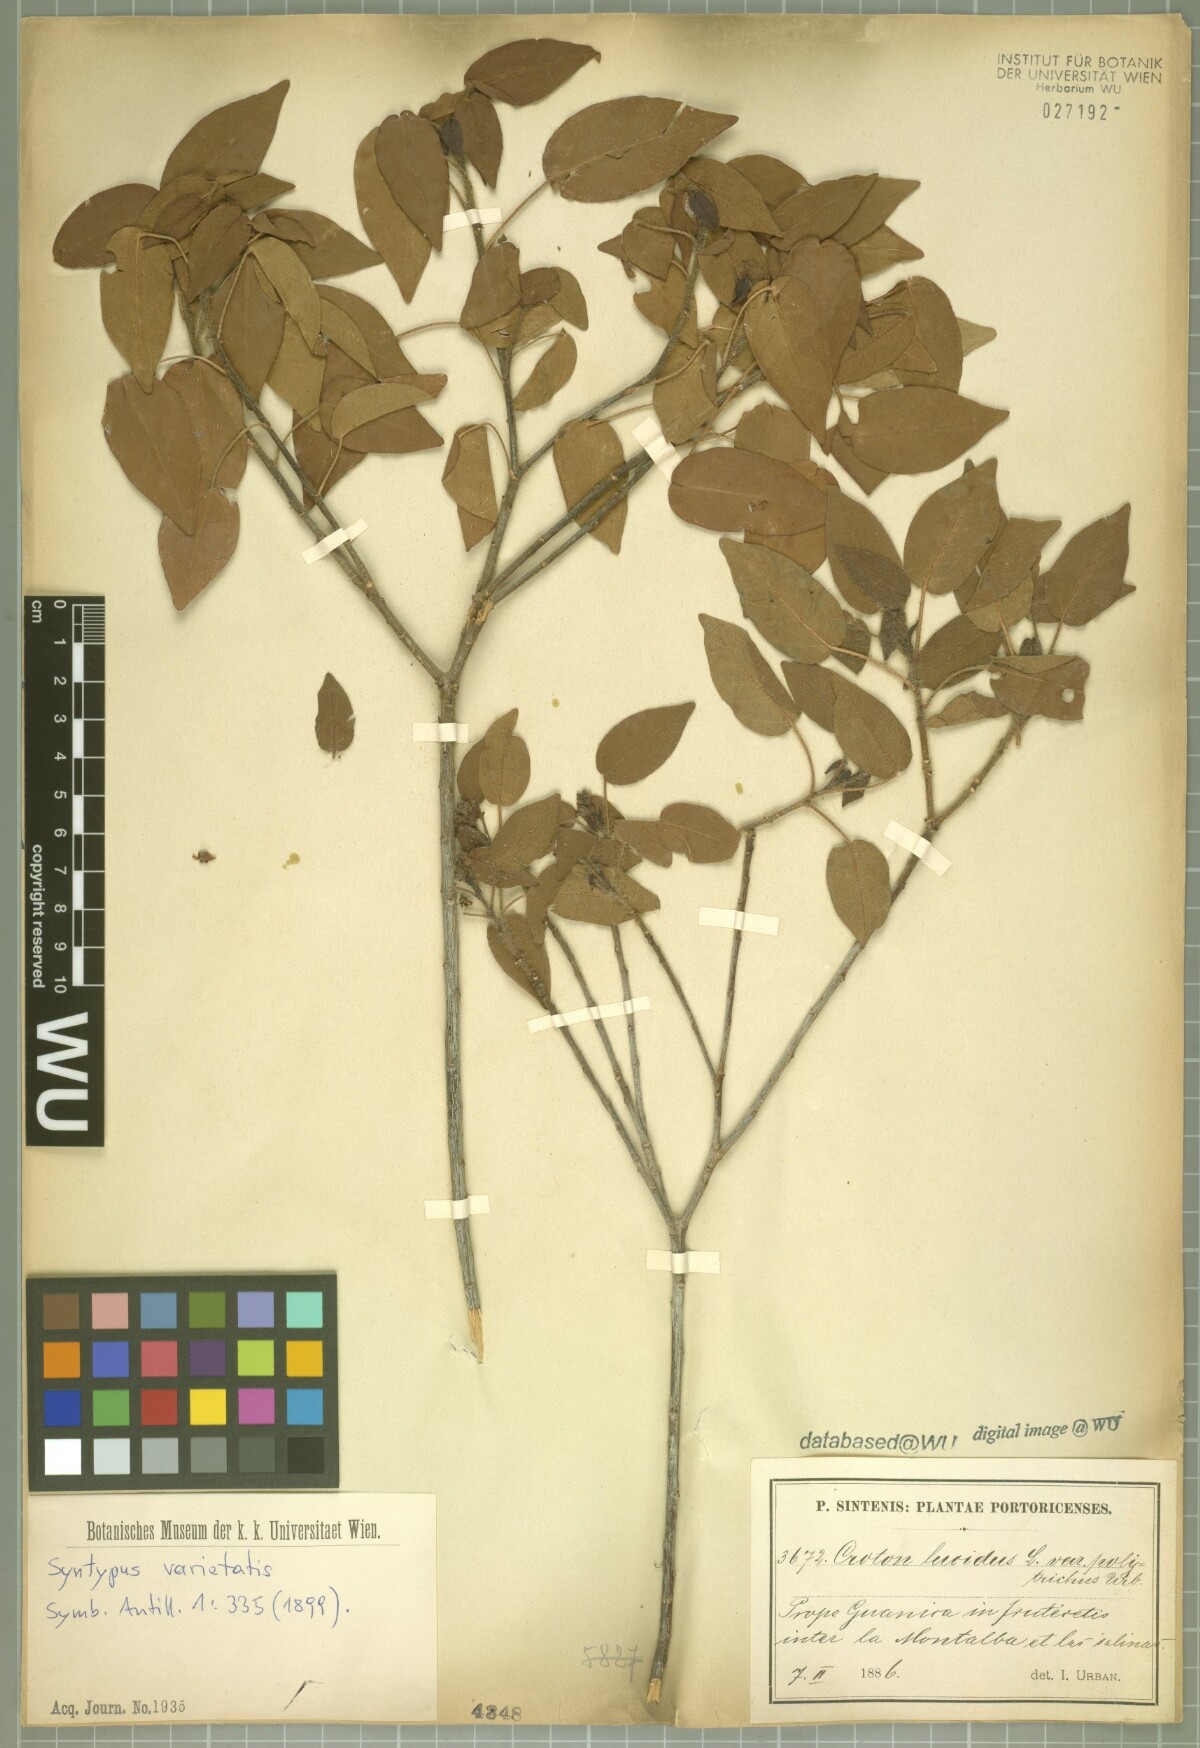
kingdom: Plantae
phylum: Tracheophyta
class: Magnoliopsida
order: Malpighiales
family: Euphorbiaceae
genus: Croton
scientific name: Croton glabellus
